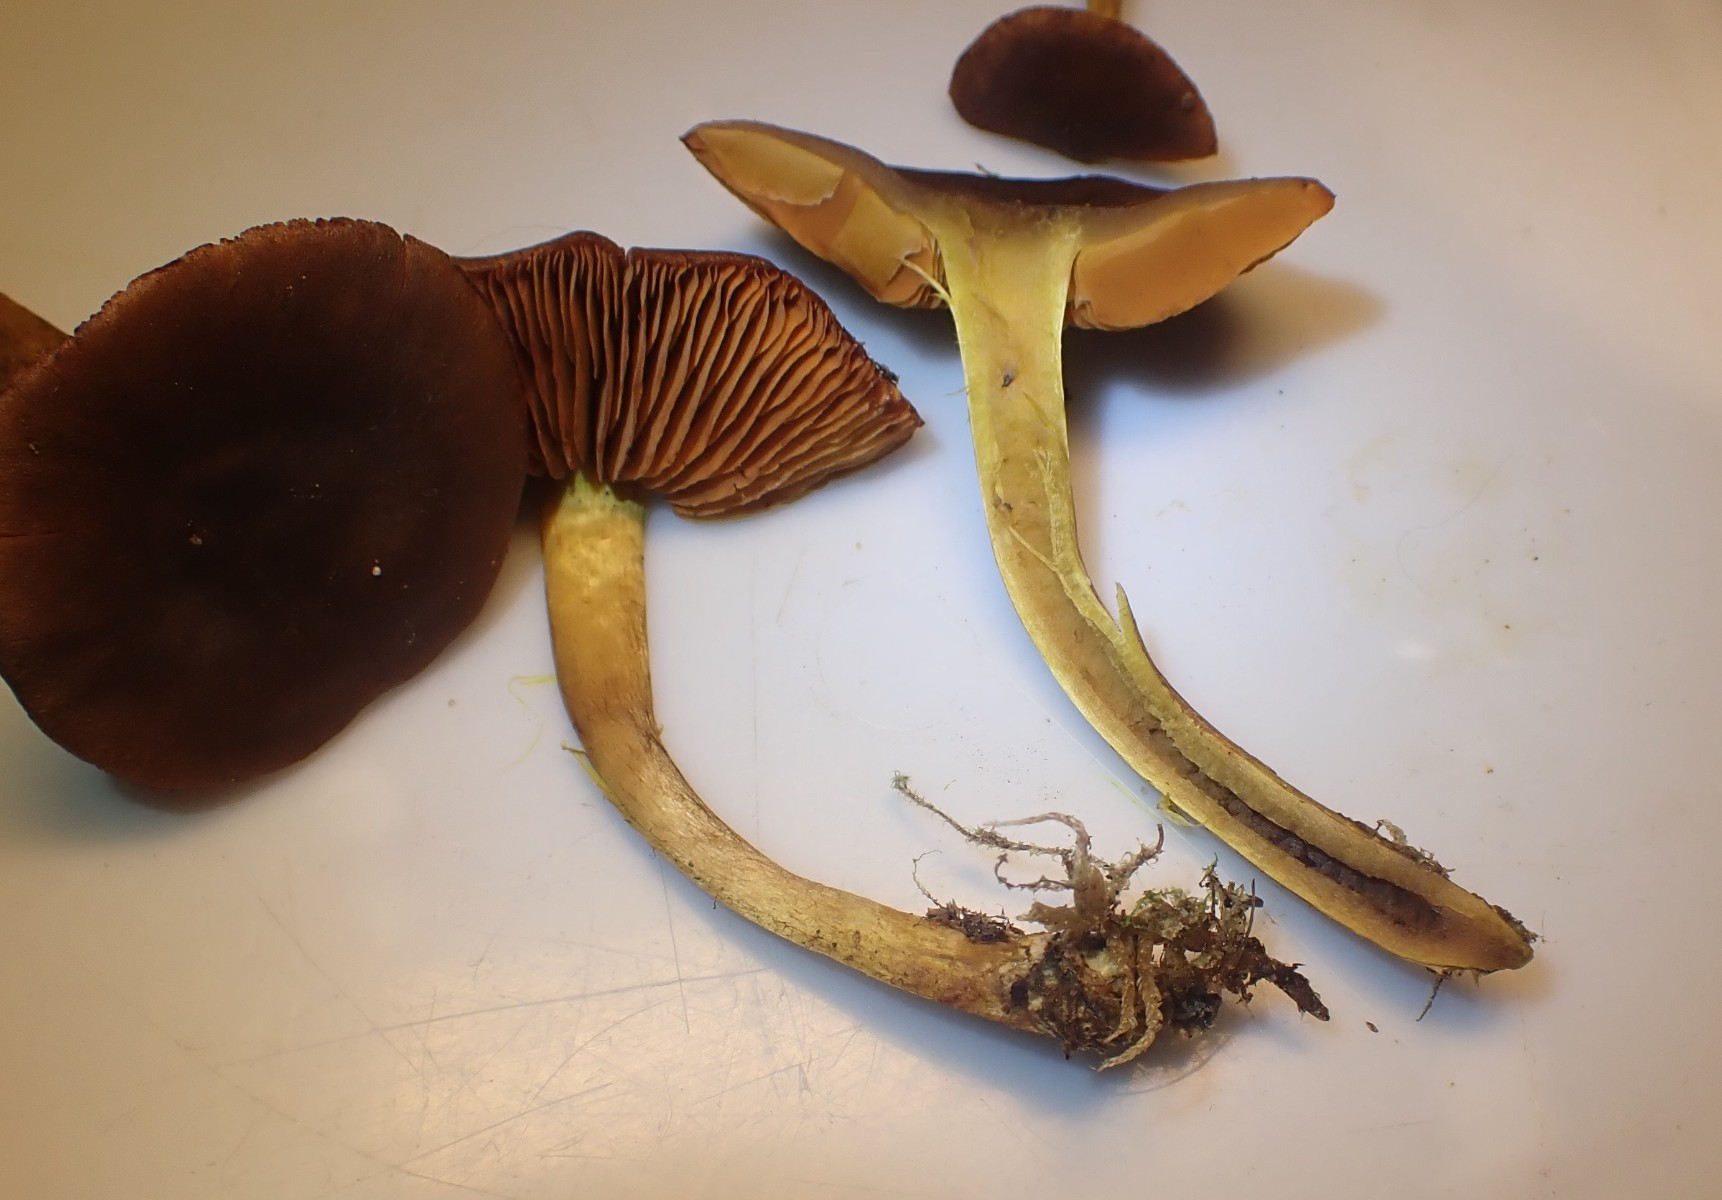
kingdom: Fungi
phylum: Basidiomycota
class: Agaricomycetes
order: Agaricales
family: Cortinariaceae
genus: Cortinarius
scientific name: Cortinarius cinnamomeus
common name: kanel-slørhat
